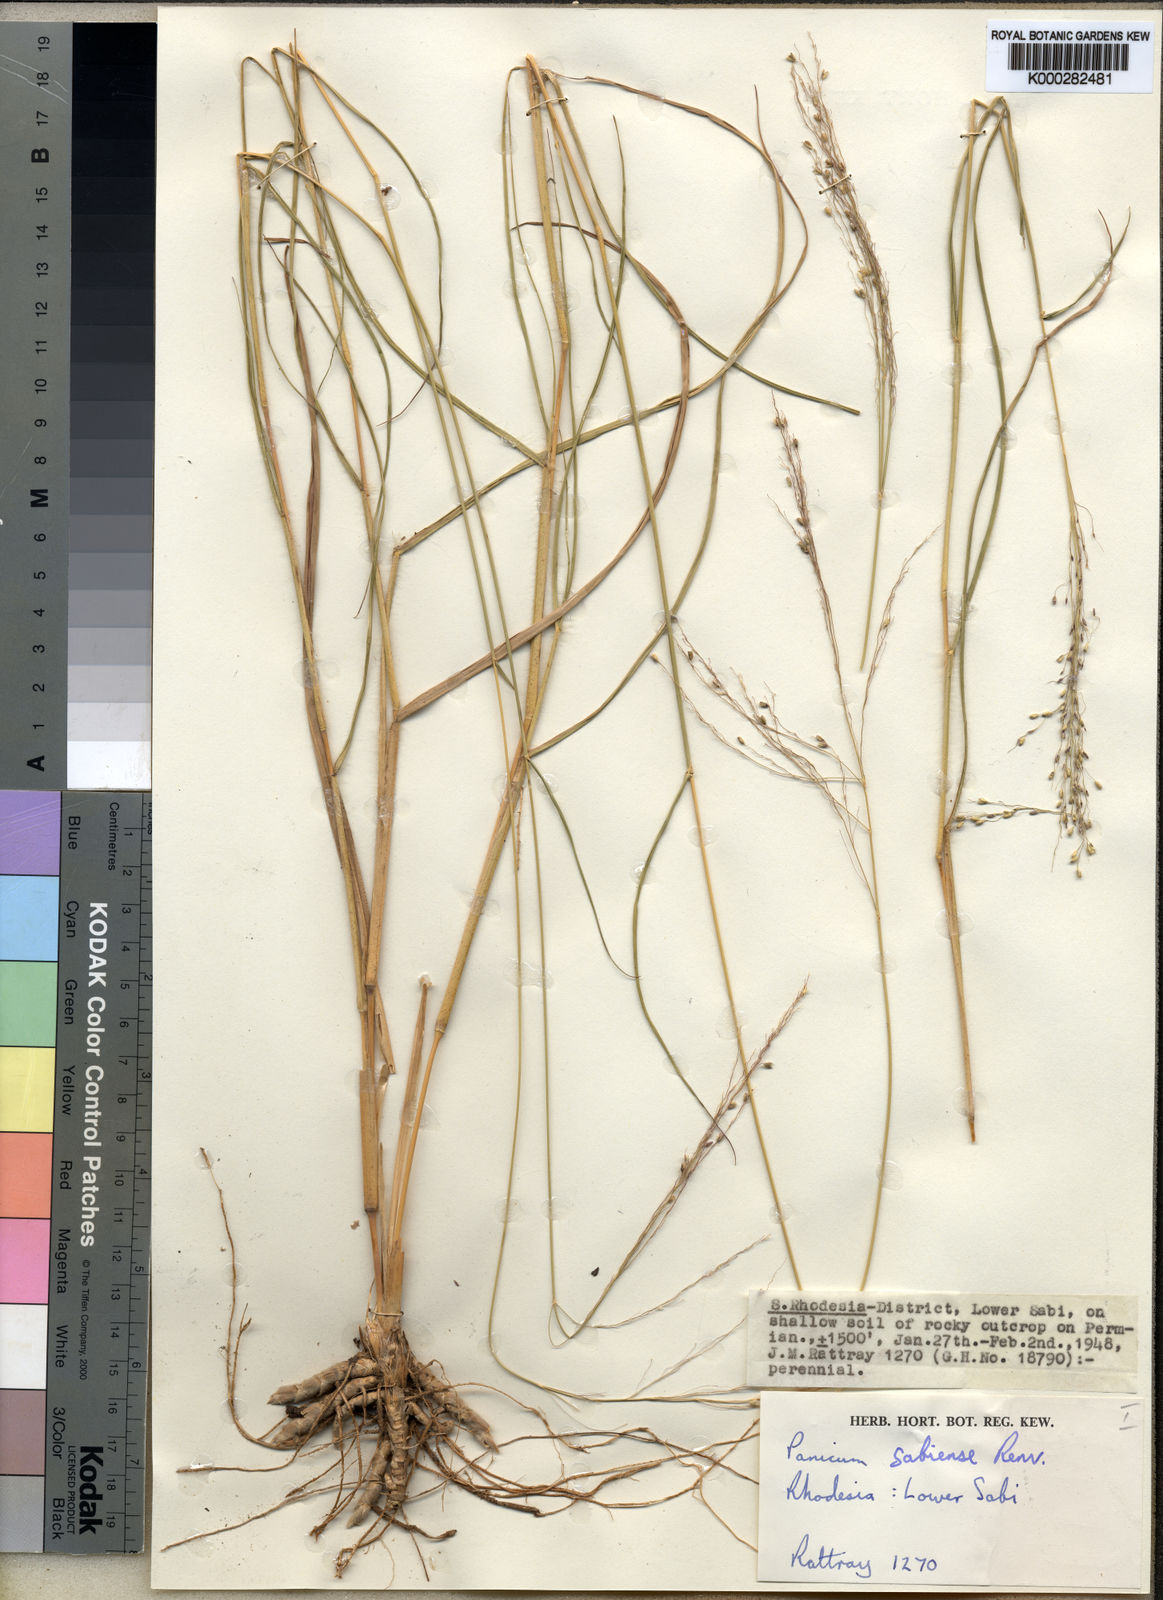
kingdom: Plantae
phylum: Tracheophyta
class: Liliopsida
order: Poales
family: Poaceae
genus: Panicum
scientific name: Panicum trichoides
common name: Tickle grass
